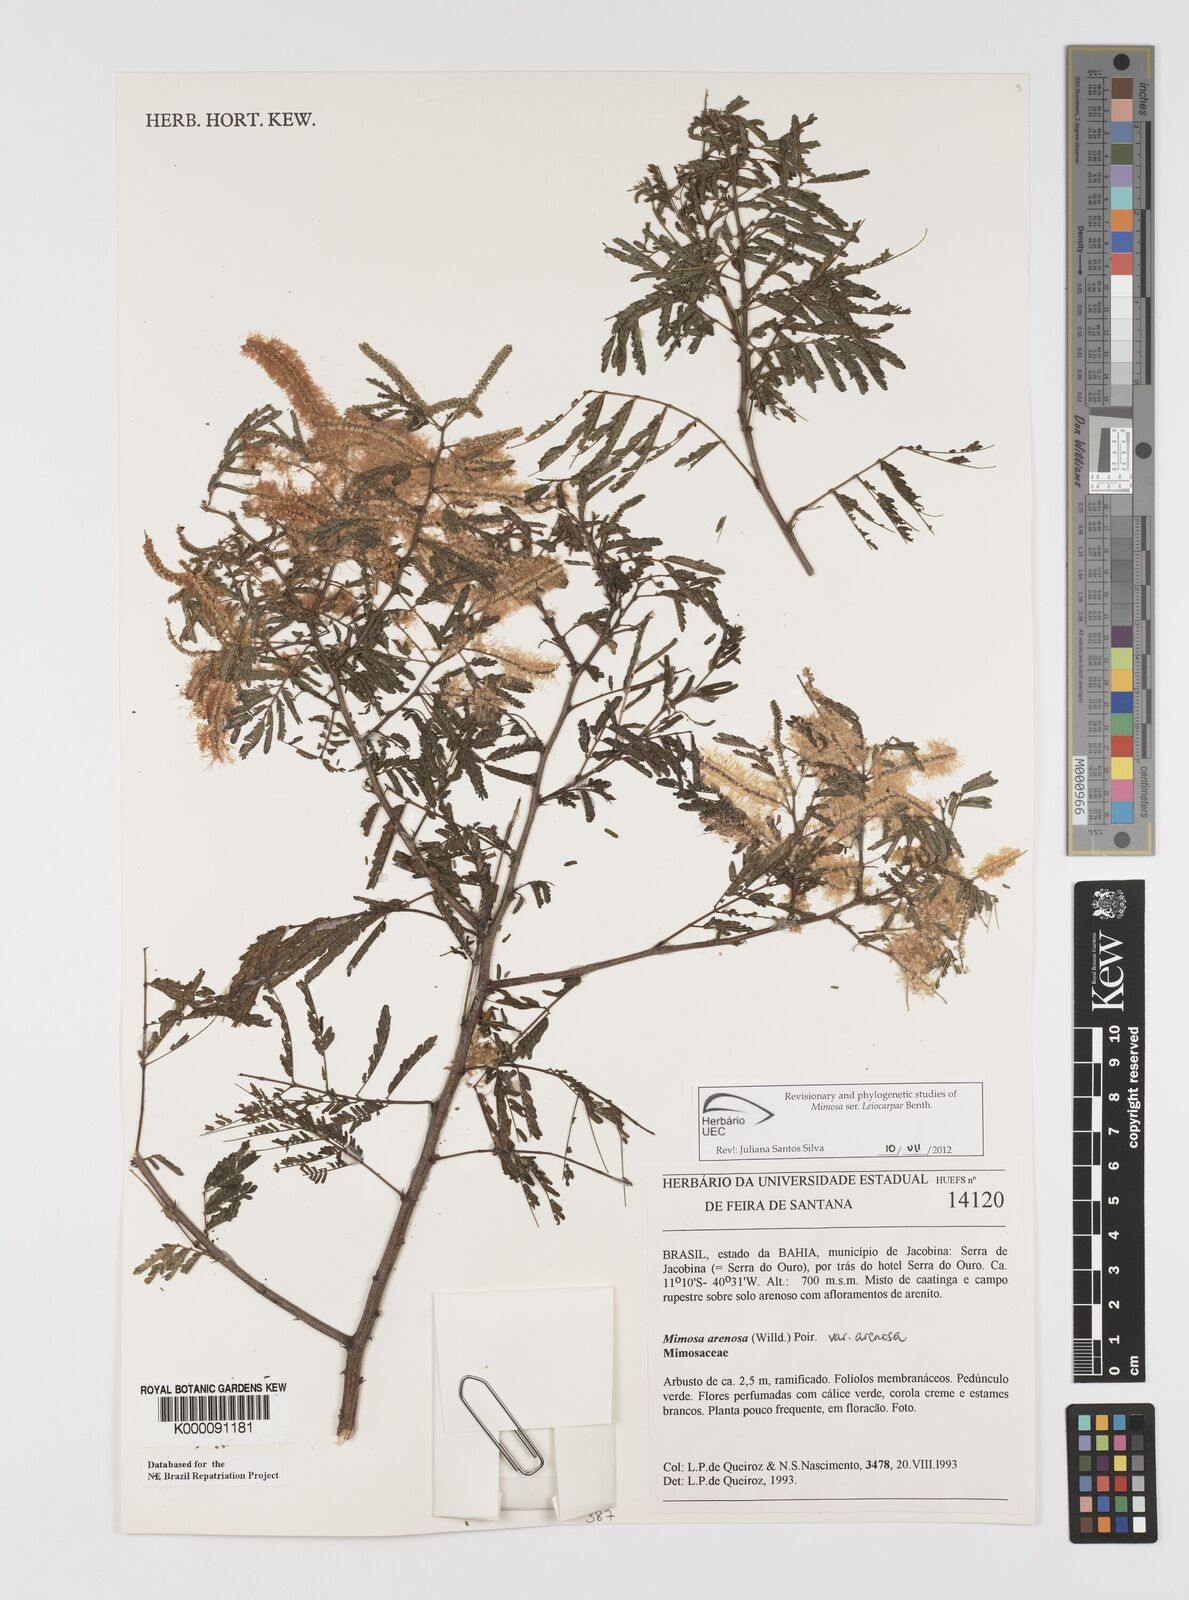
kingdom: Plantae
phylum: Tracheophyta
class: Magnoliopsida
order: Fabales
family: Fabaceae
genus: Mimosa
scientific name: Mimosa arenosa
